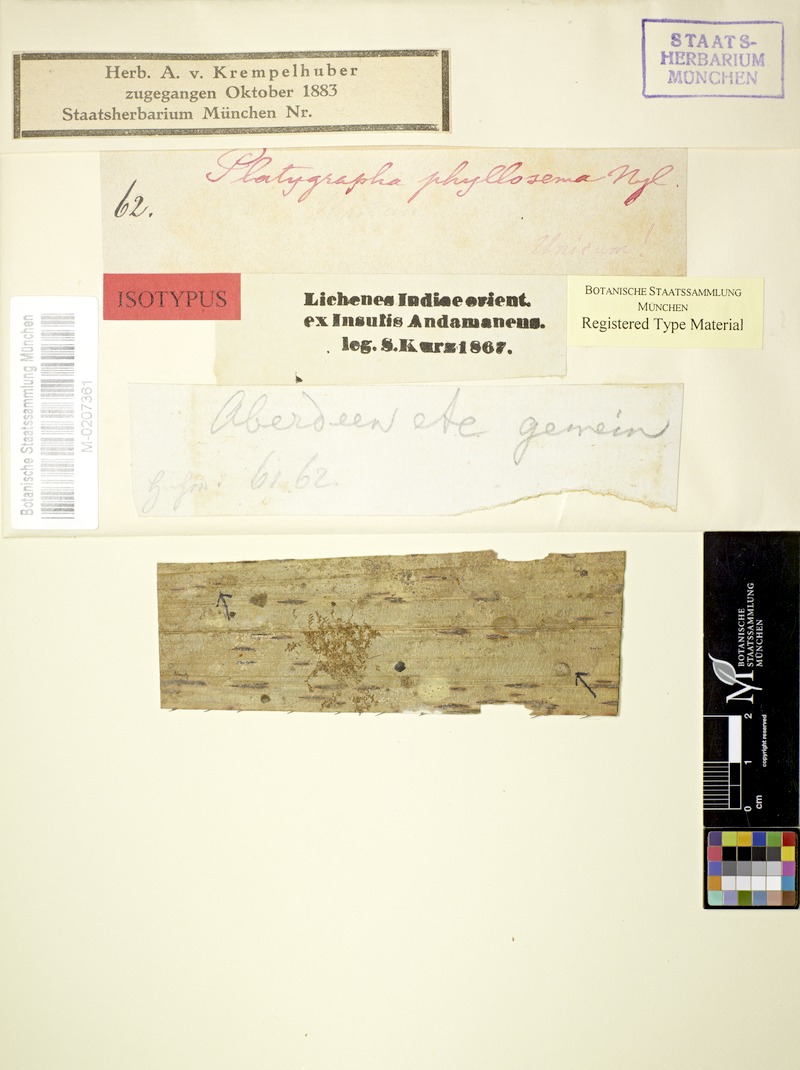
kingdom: Fungi
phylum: Ascomycota
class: Arthoniomycetes
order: Arthoniales
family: Roccellaceae
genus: Mazosia
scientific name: Mazosia phyllosema
